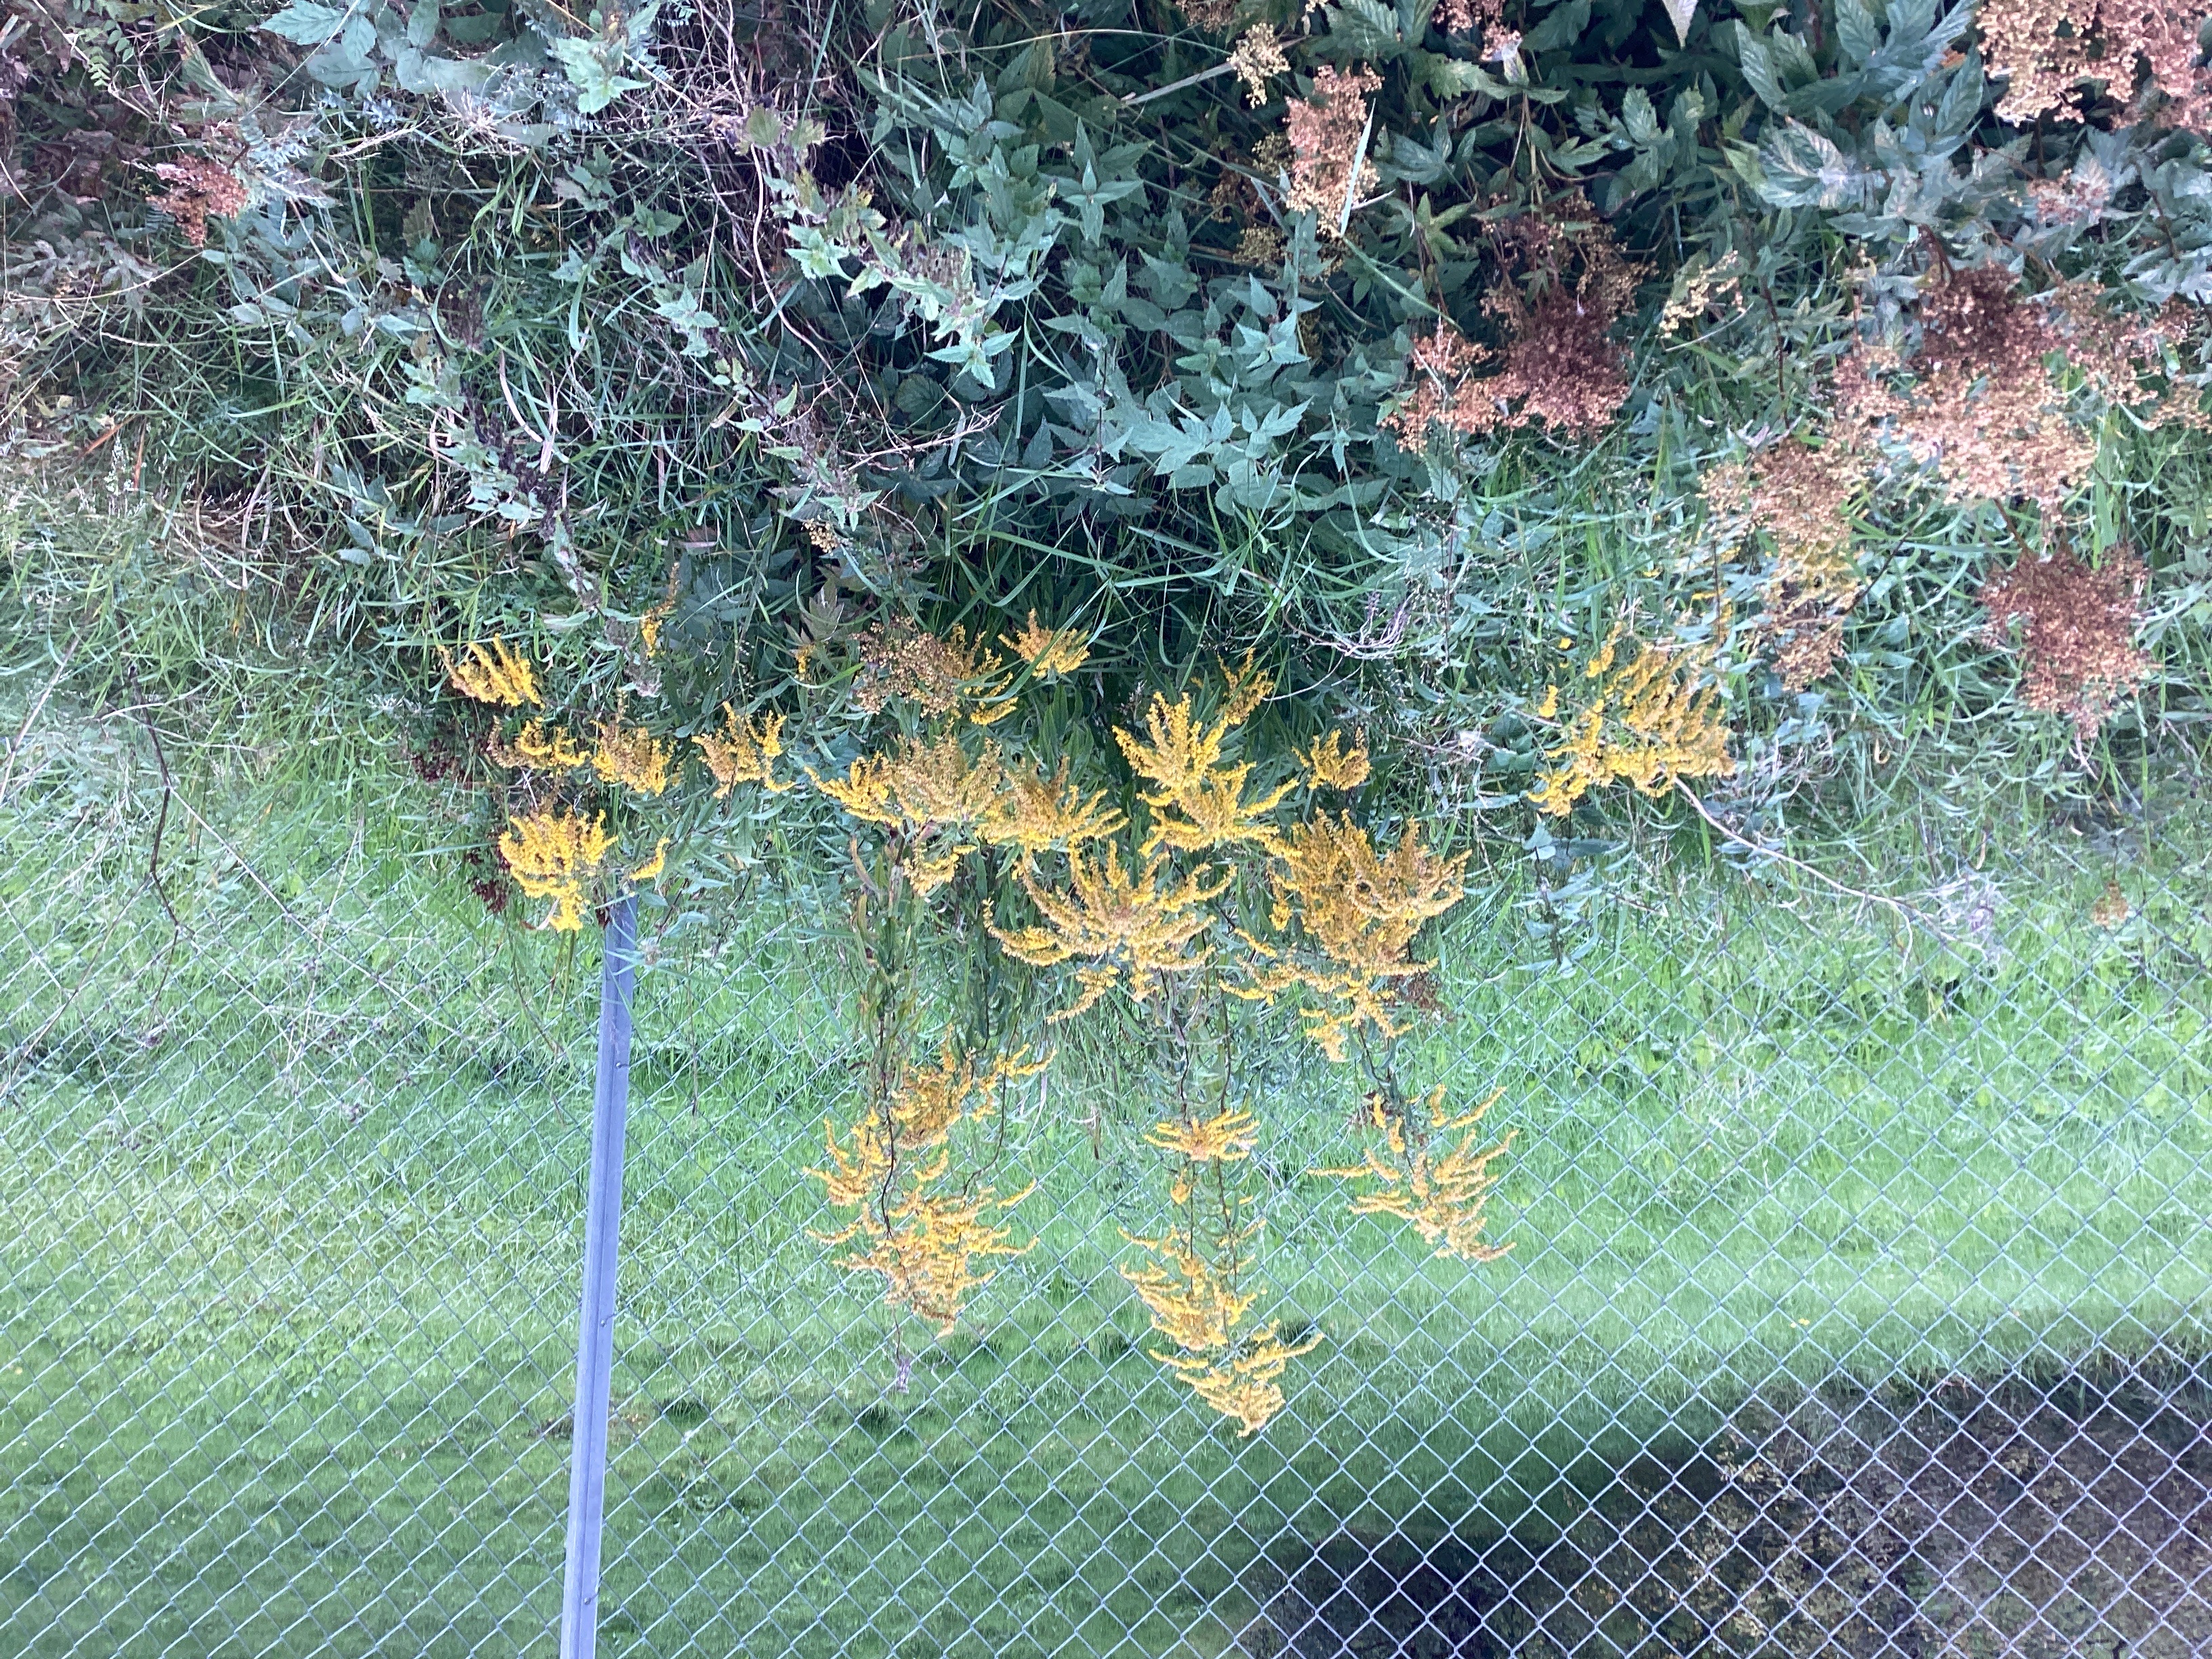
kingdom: Plantae
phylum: Tracheophyta
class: Magnoliopsida
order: Asterales
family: Asteraceae
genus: Solidago
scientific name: Solidago canadensis
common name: kanadagullris
